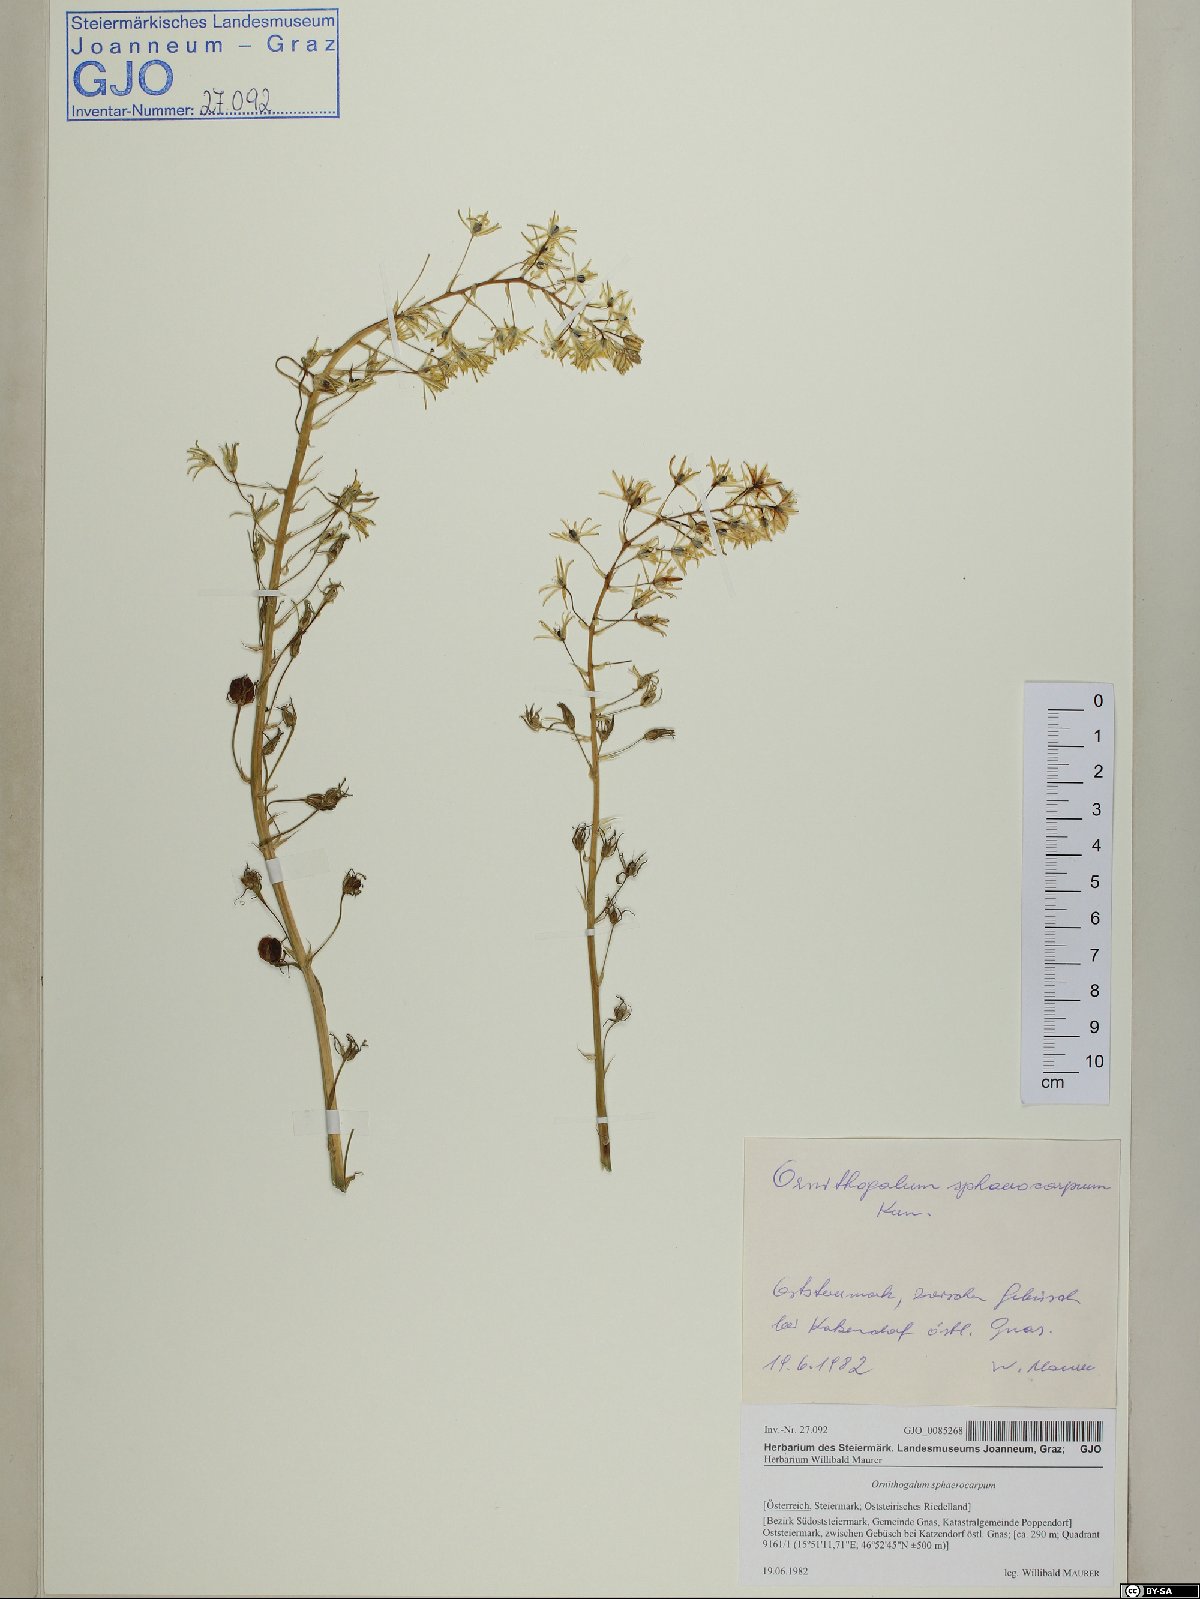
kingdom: Plantae
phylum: Tracheophyta
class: Liliopsida
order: Asparagales
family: Asparagaceae
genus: Ornithogalum
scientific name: Ornithogalum sphaerocarpum
